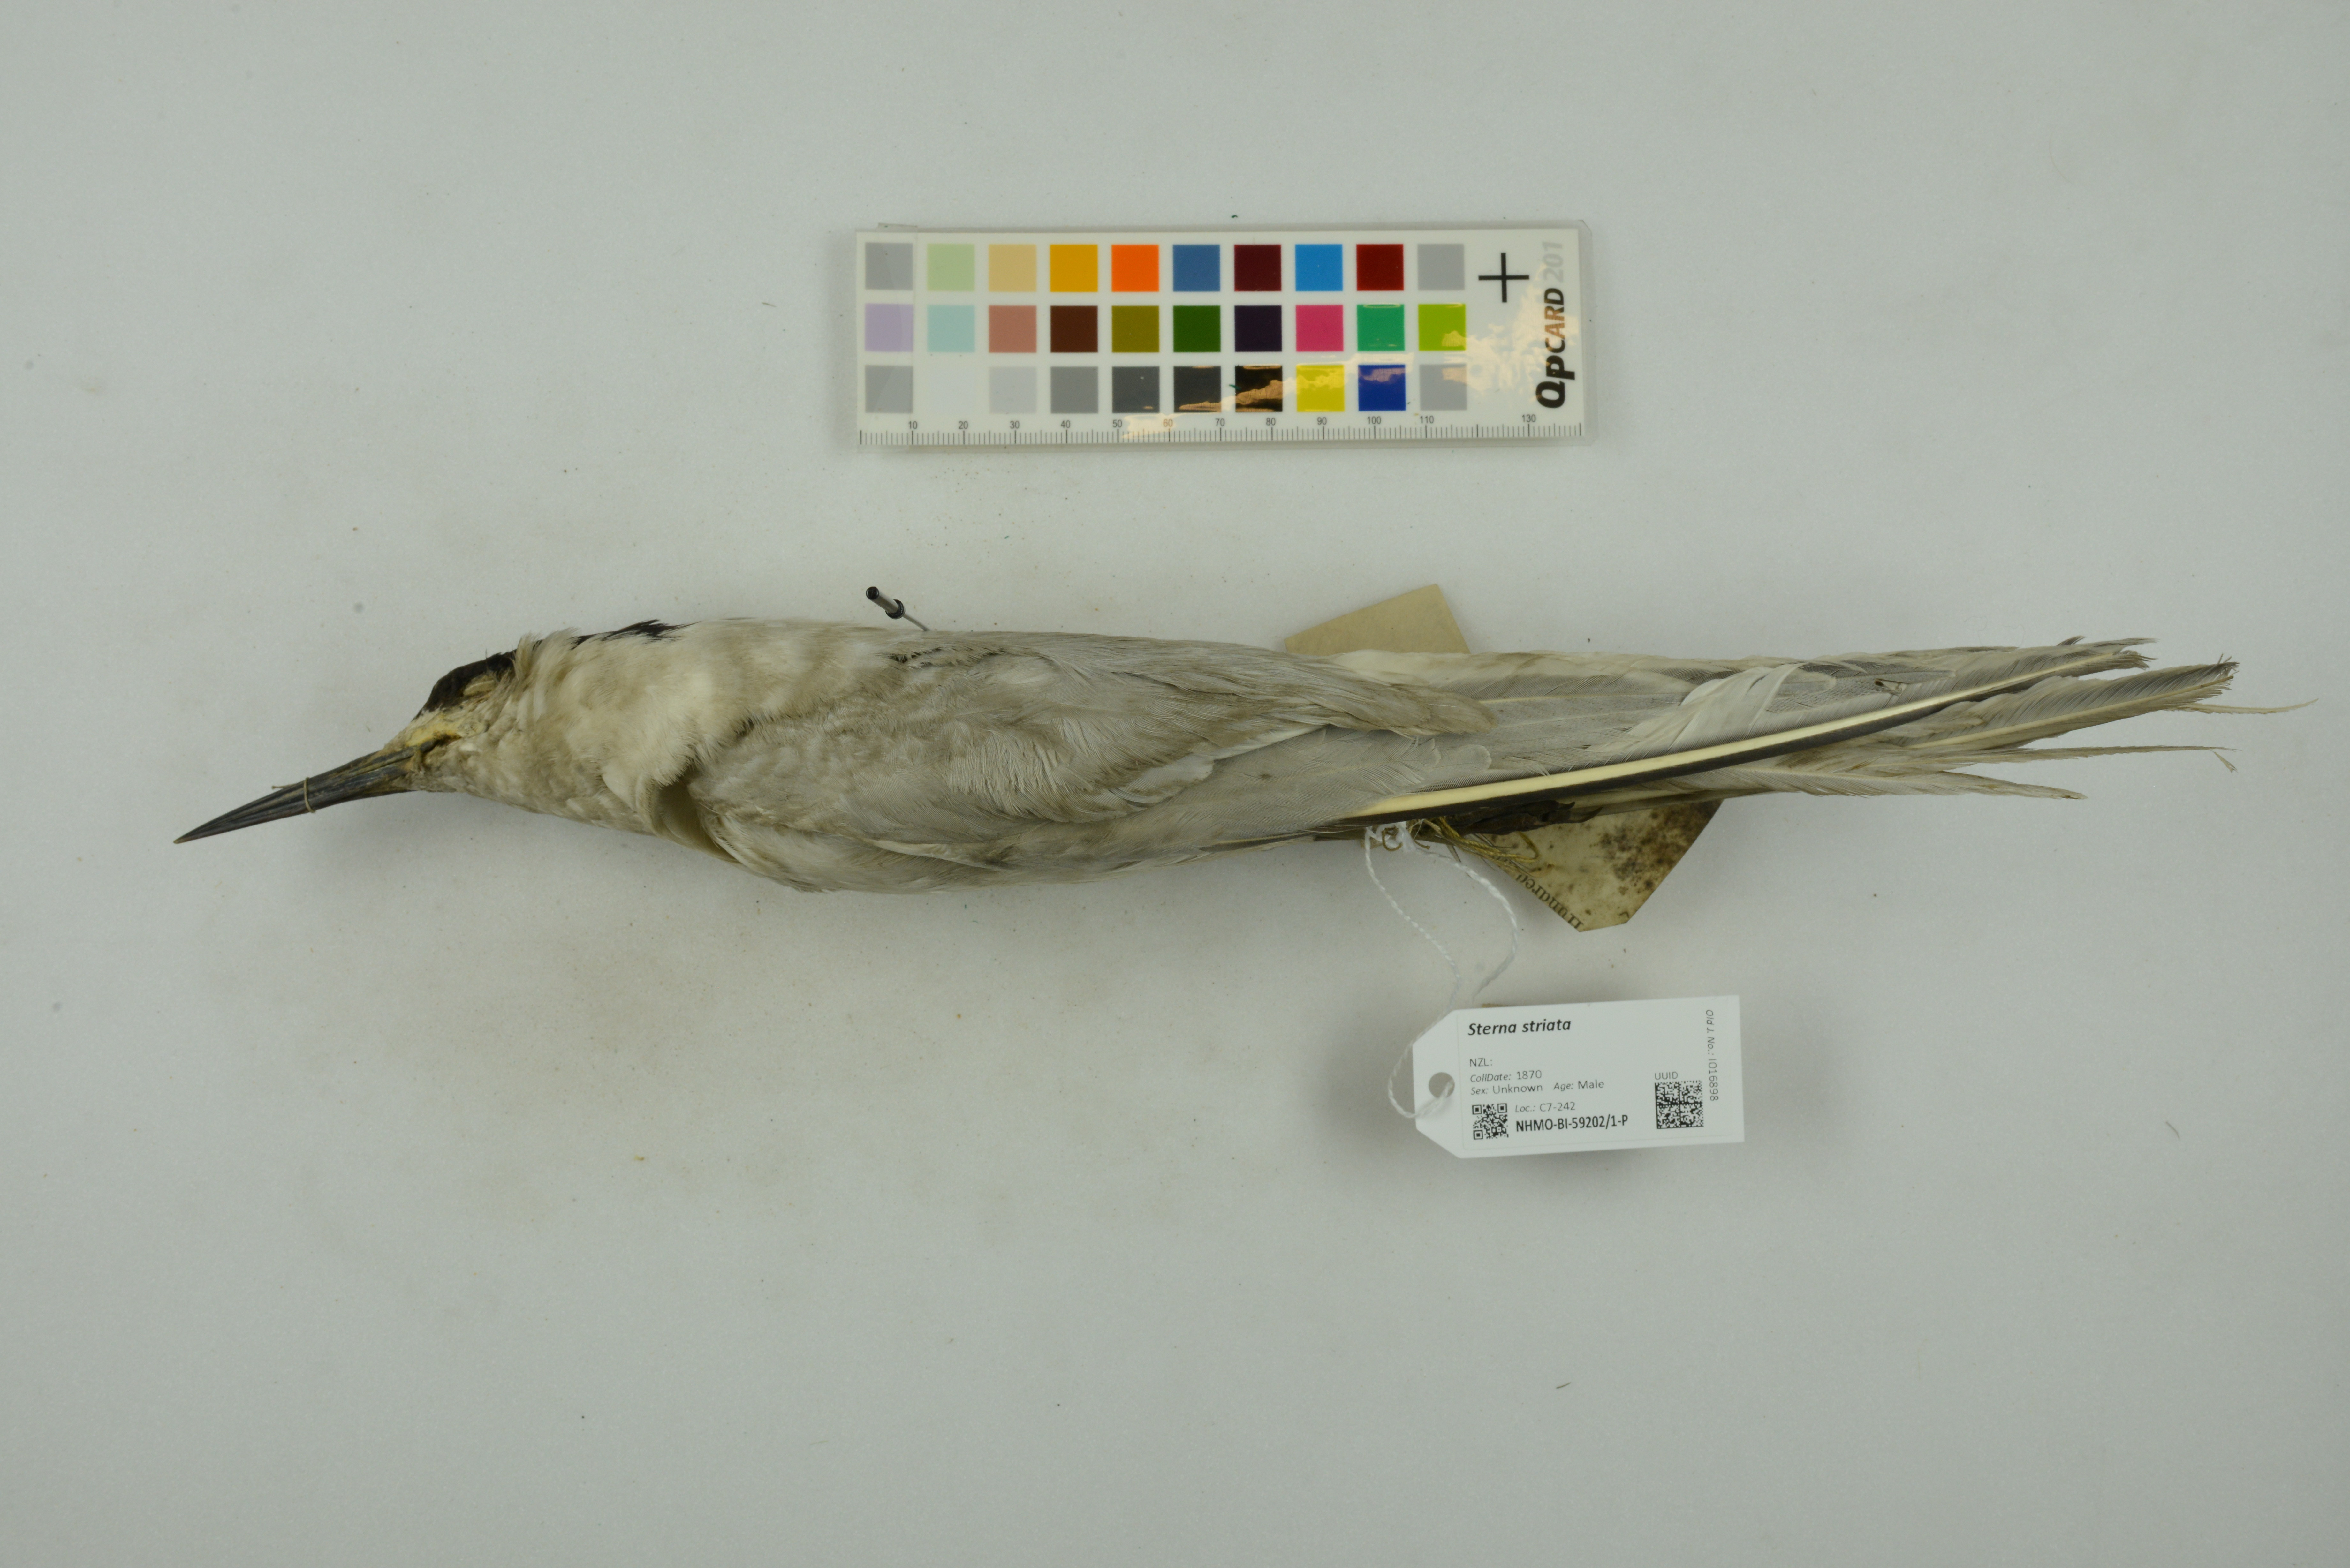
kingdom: Animalia
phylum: Chordata
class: Aves
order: Charadriiformes
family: Laridae
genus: Sterna
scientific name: Sterna striata
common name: White-fronted tern
